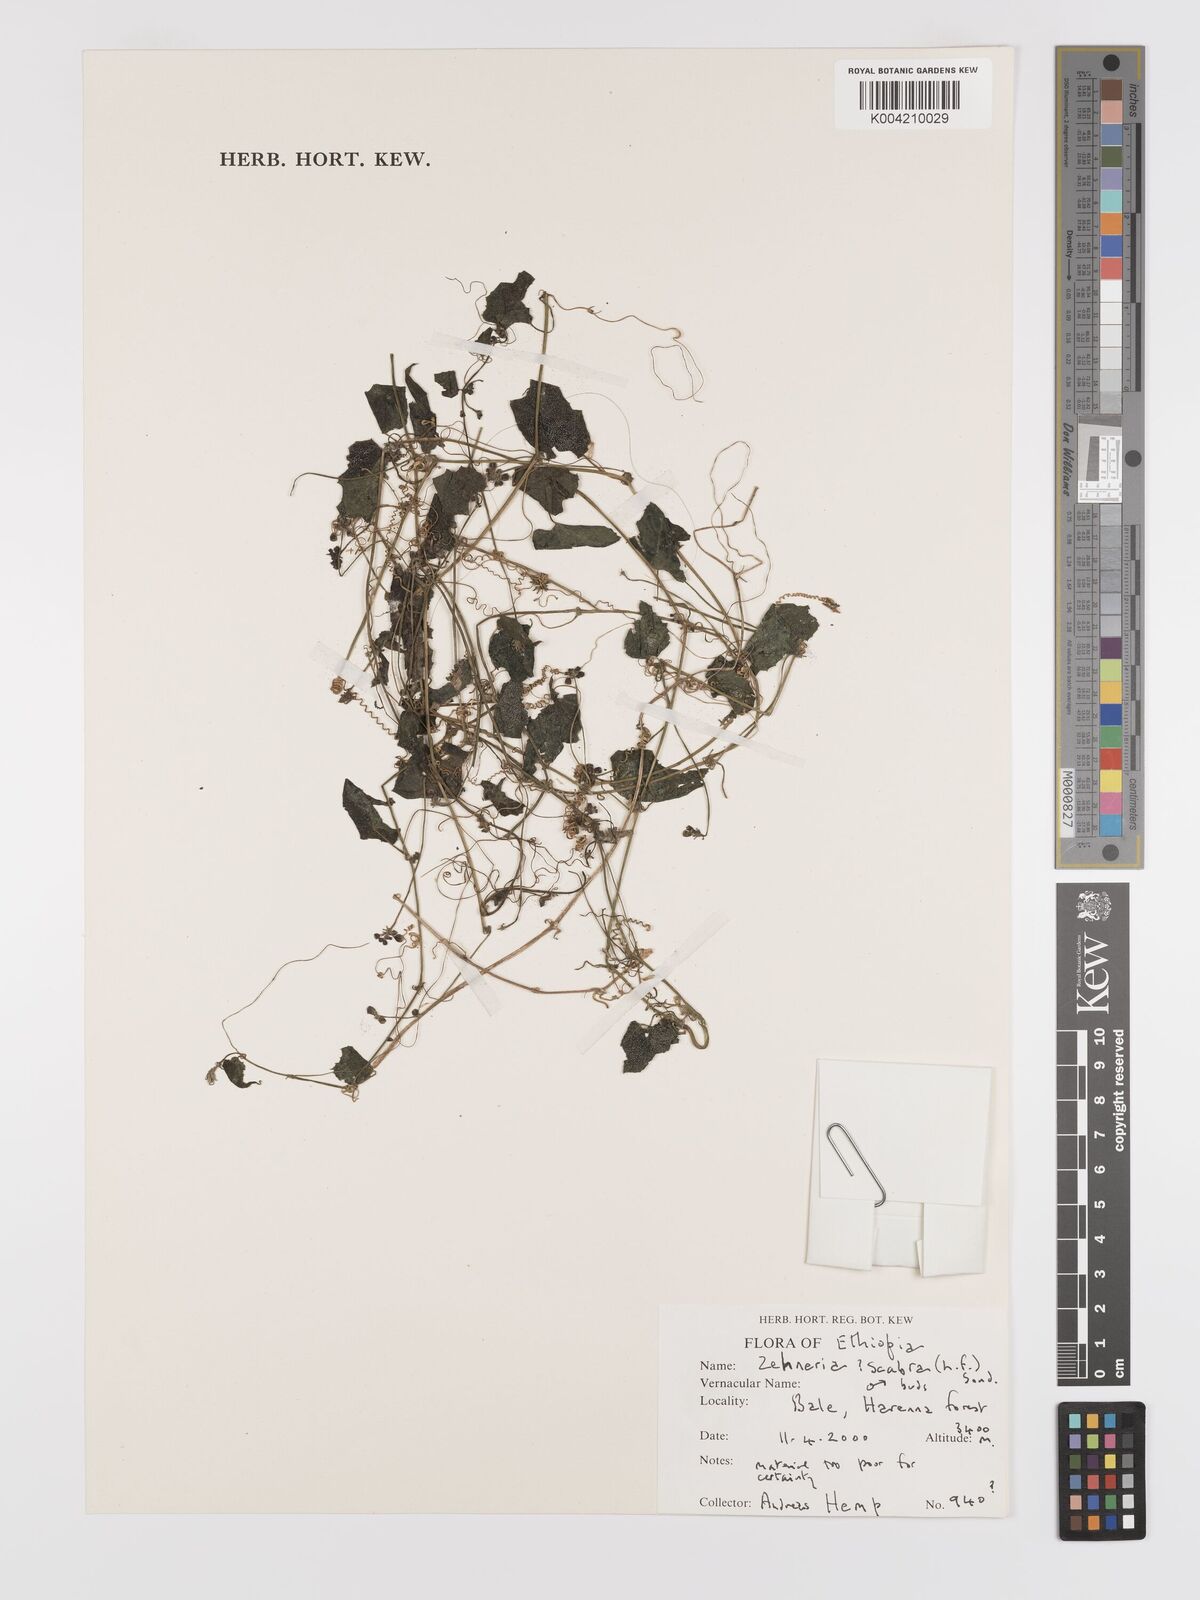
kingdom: Plantae
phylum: Tracheophyta
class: Magnoliopsida
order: Cucurbitales
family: Cucurbitaceae
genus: Zehneria
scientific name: Zehneria scabra
